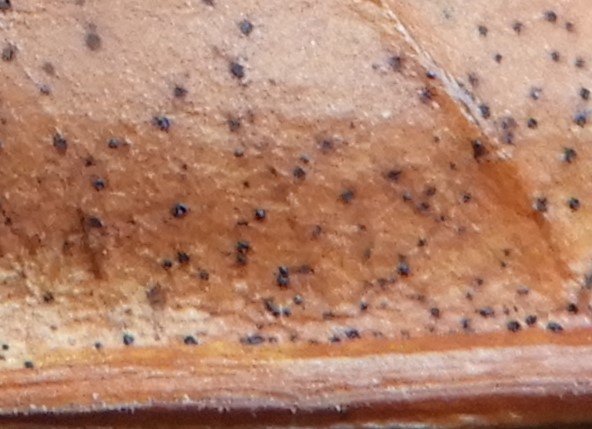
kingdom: Fungi
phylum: Ascomycota
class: Leotiomycetes
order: Helotiales
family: Cenangiaceae
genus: Trochila
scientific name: Trochila laurocerasi
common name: kirsebær-lågskive
